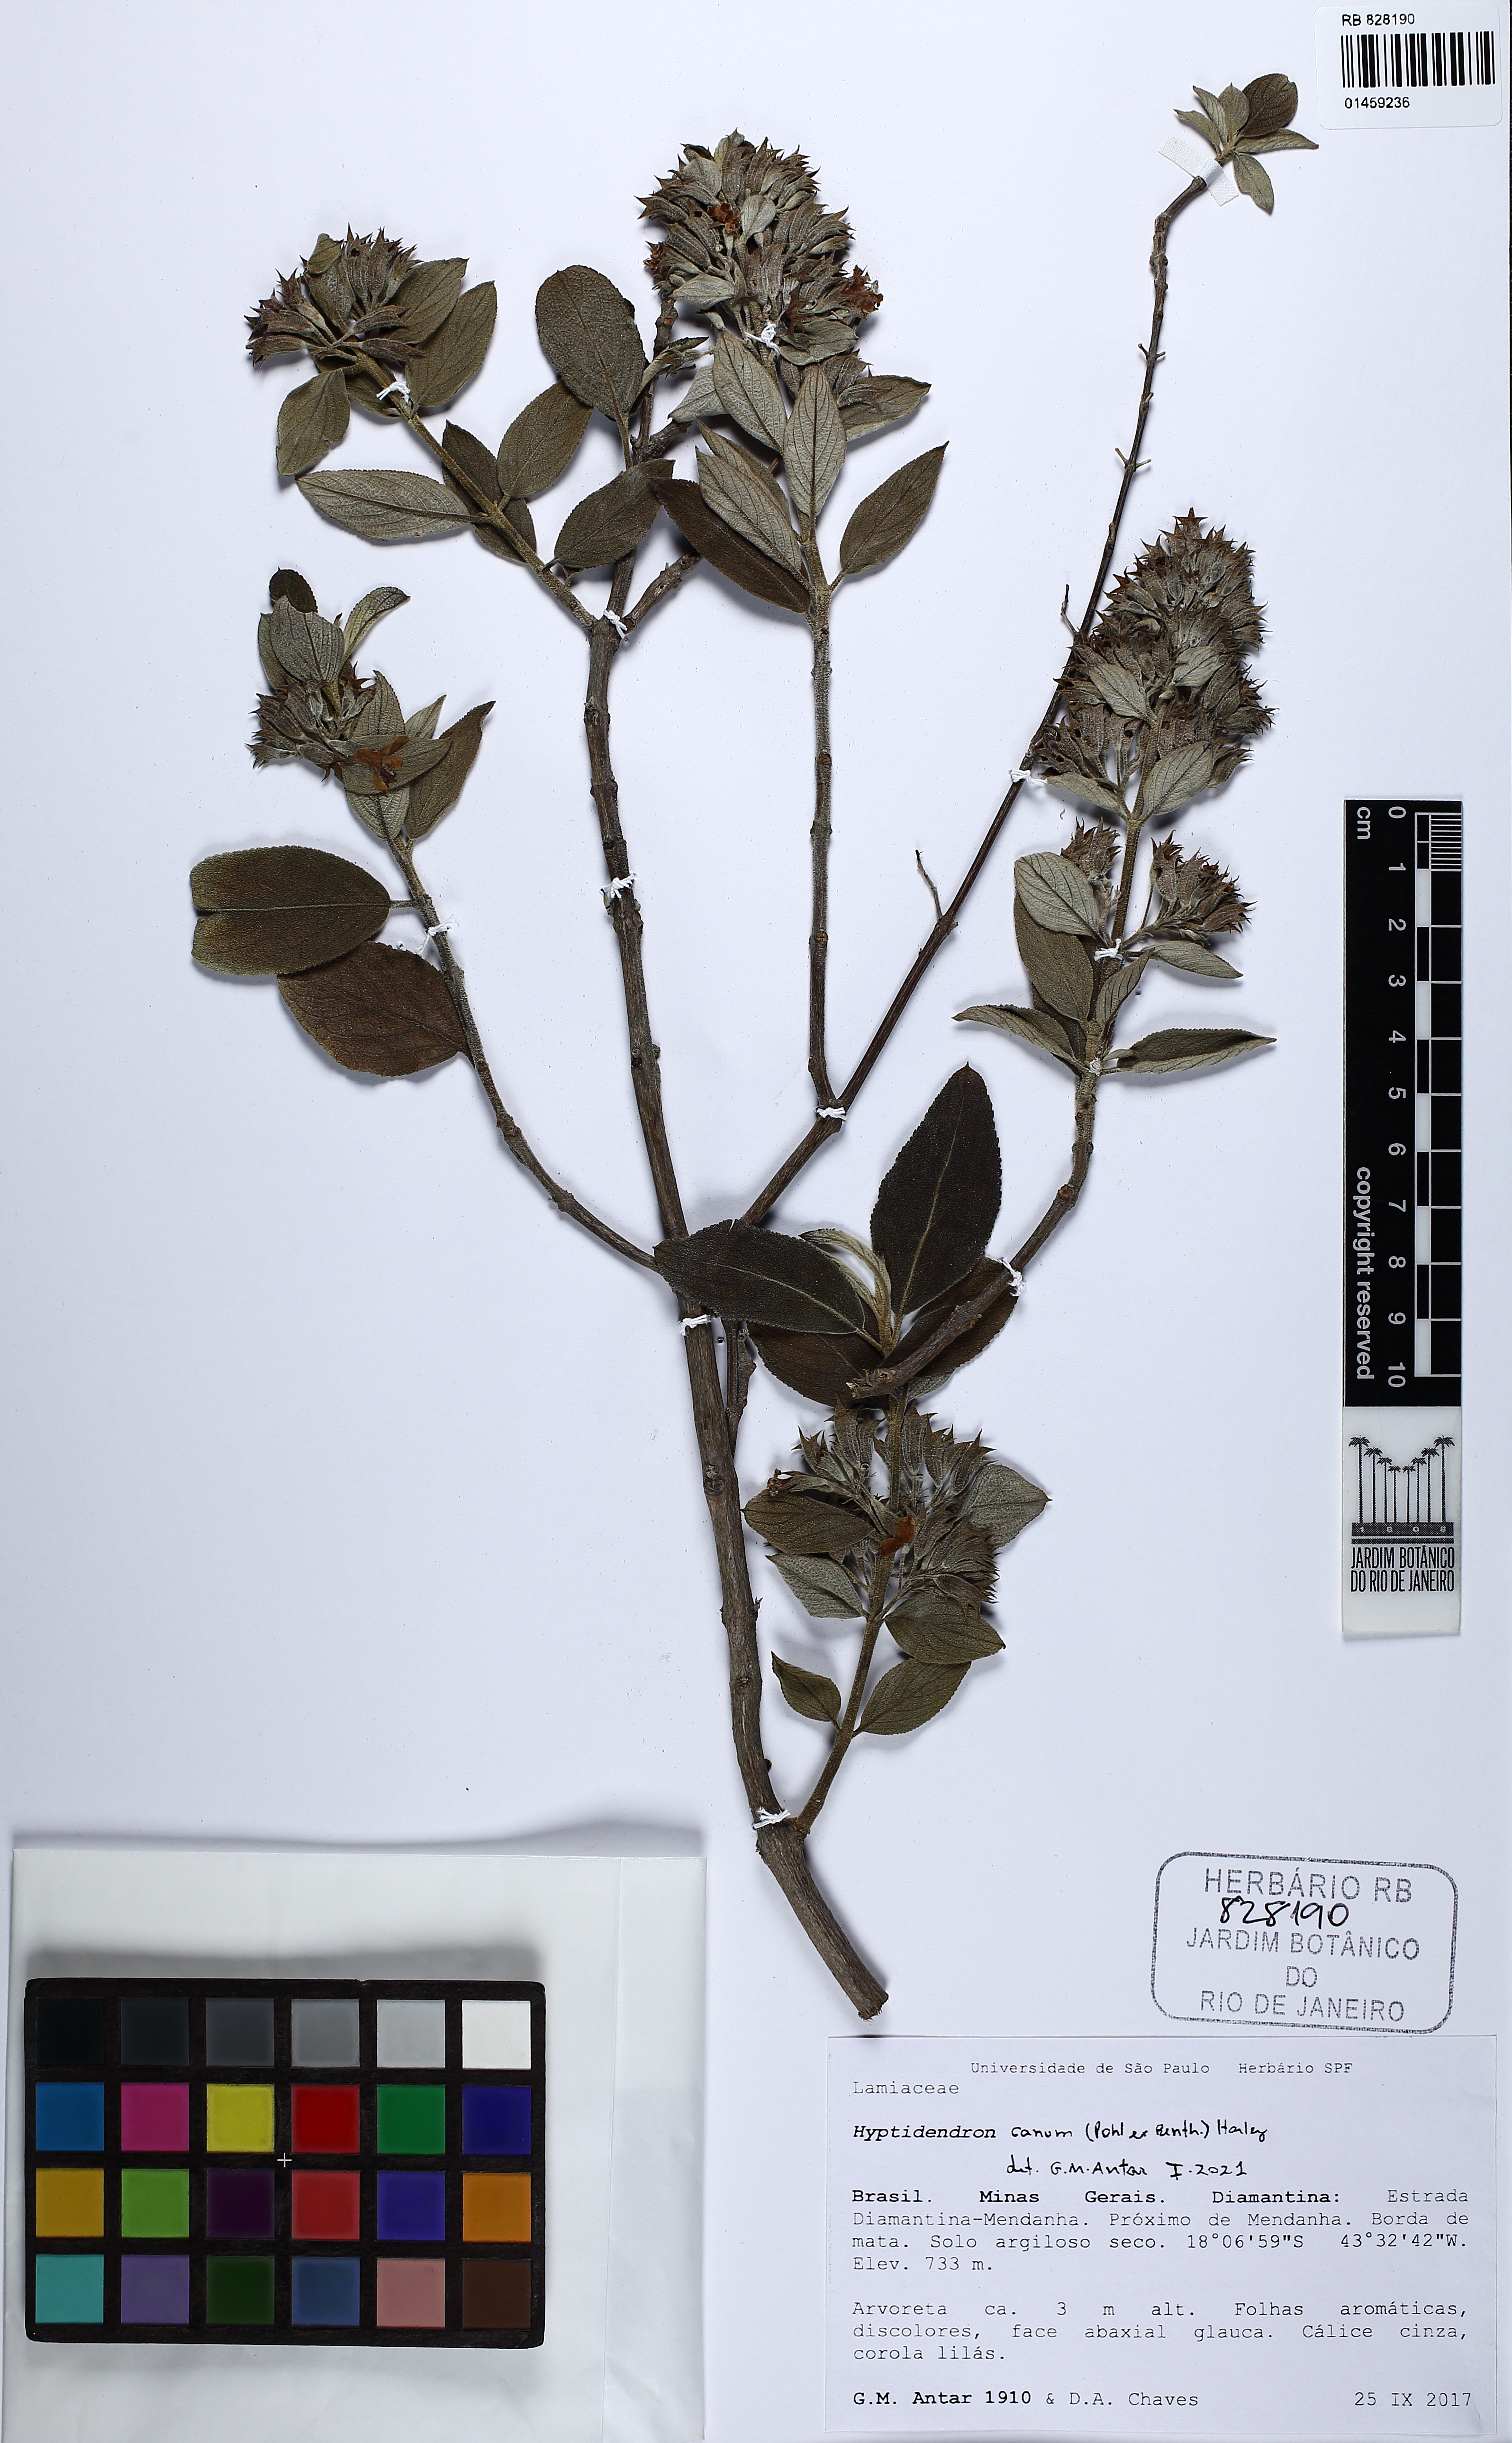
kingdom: Plantae
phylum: Tracheophyta
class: Magnoliopsida
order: Lamiales
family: Lamiaceae
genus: Hyptidendron
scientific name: Hyptidendron canum
